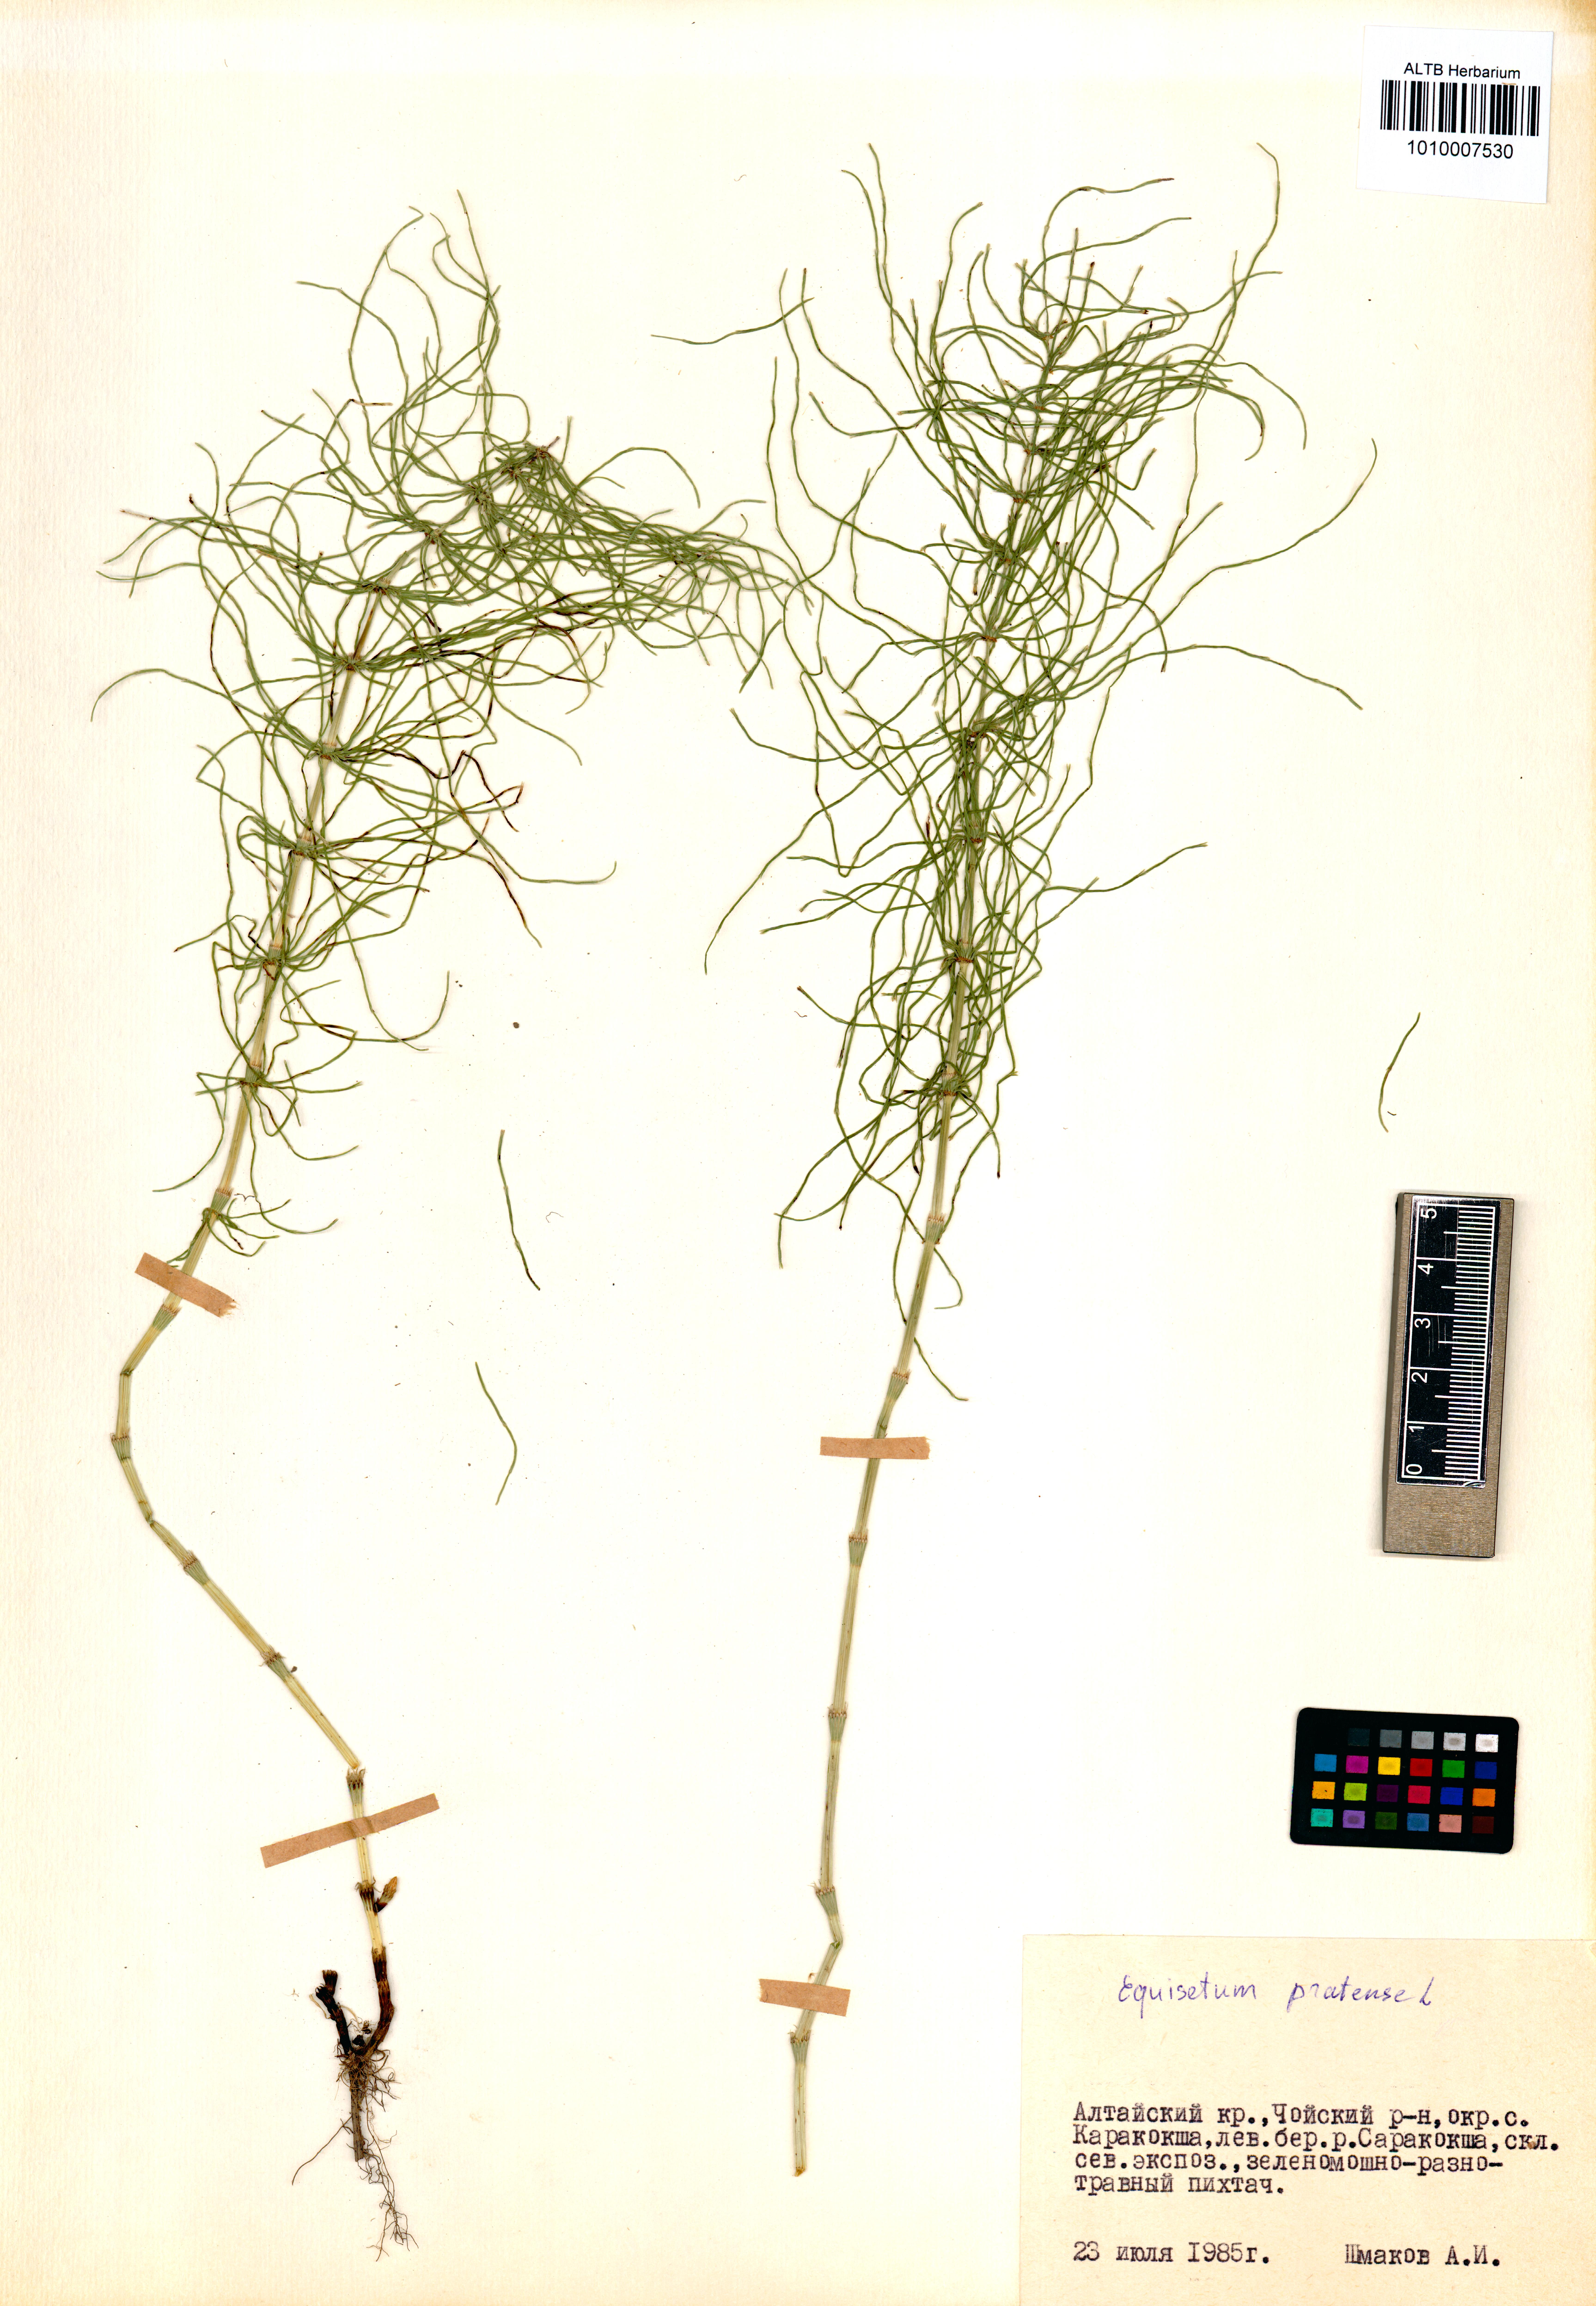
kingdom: Plantae
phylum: Tracheophyta
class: Polypodiopsida
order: Equisetales
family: Equisetaceae
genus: Equisetum
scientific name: Equisetum pratense
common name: Meadow horsetail
